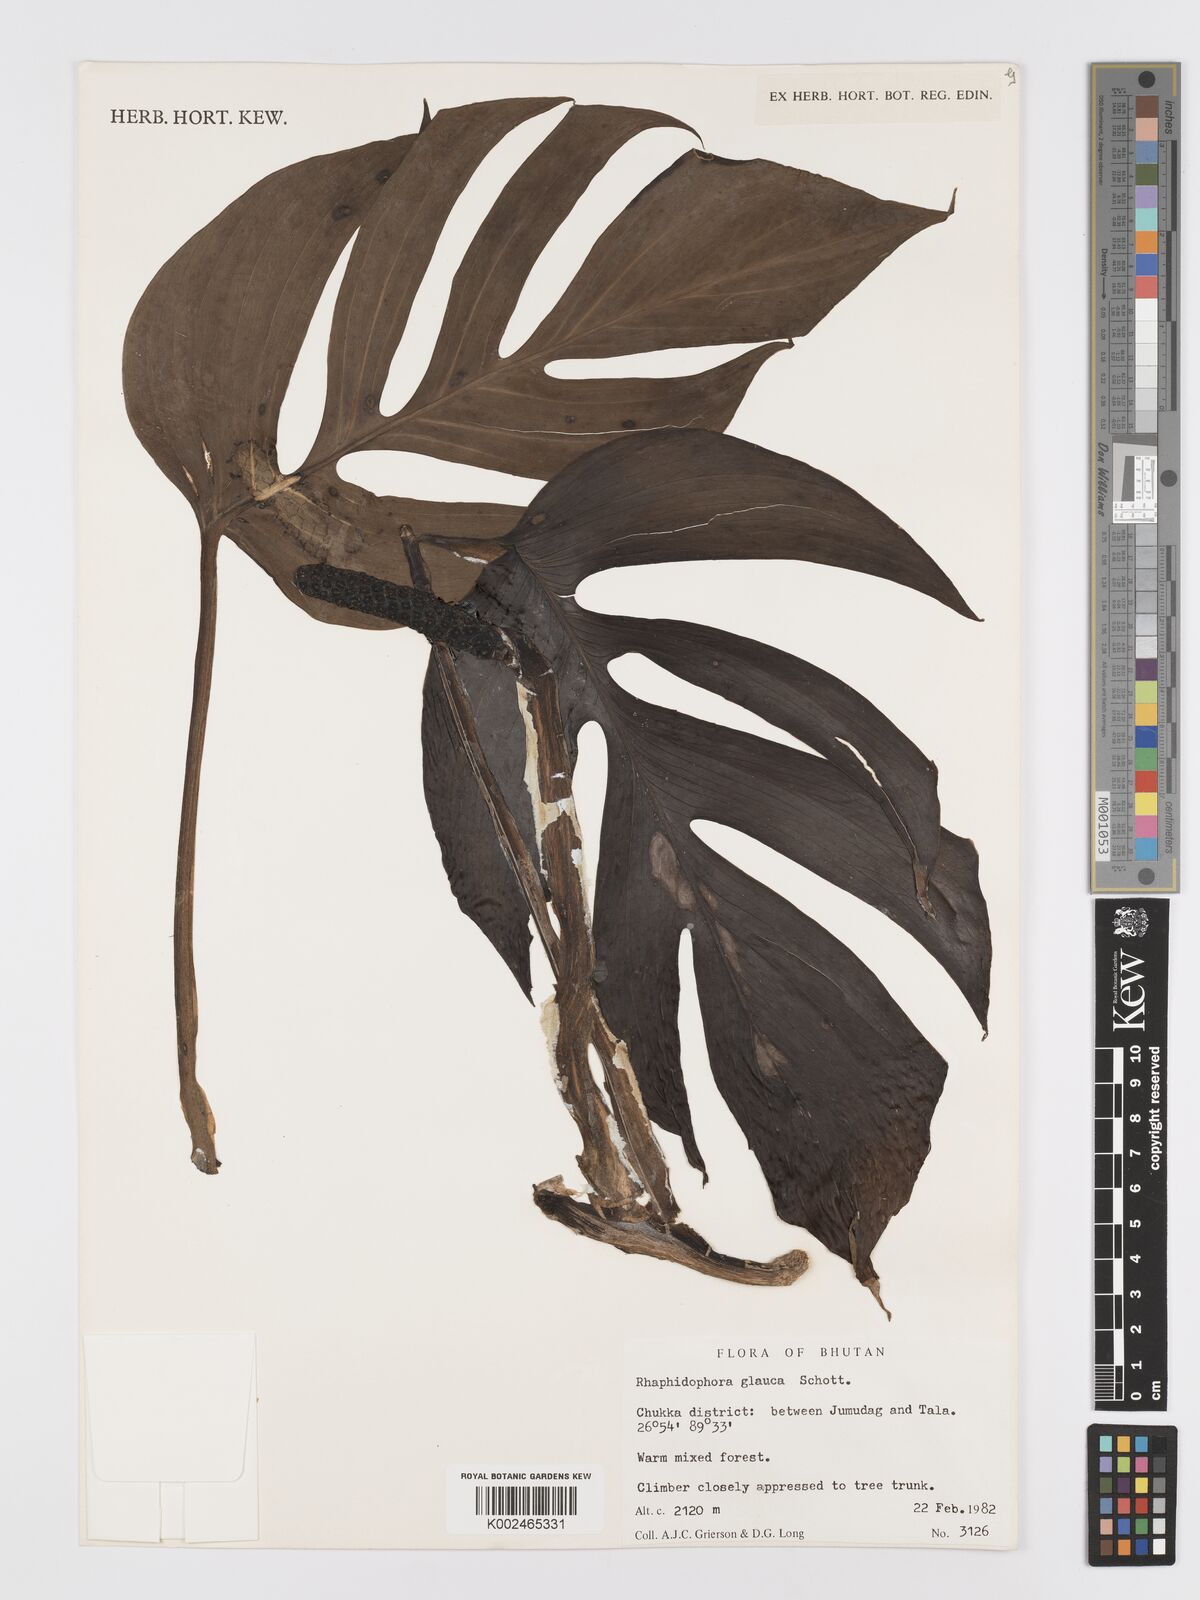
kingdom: Plantae
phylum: Tracheophyta
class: Liliopsida
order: Alismatales
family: Araceae
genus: Rhaphidophora
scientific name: Rhaphidophora glauca
